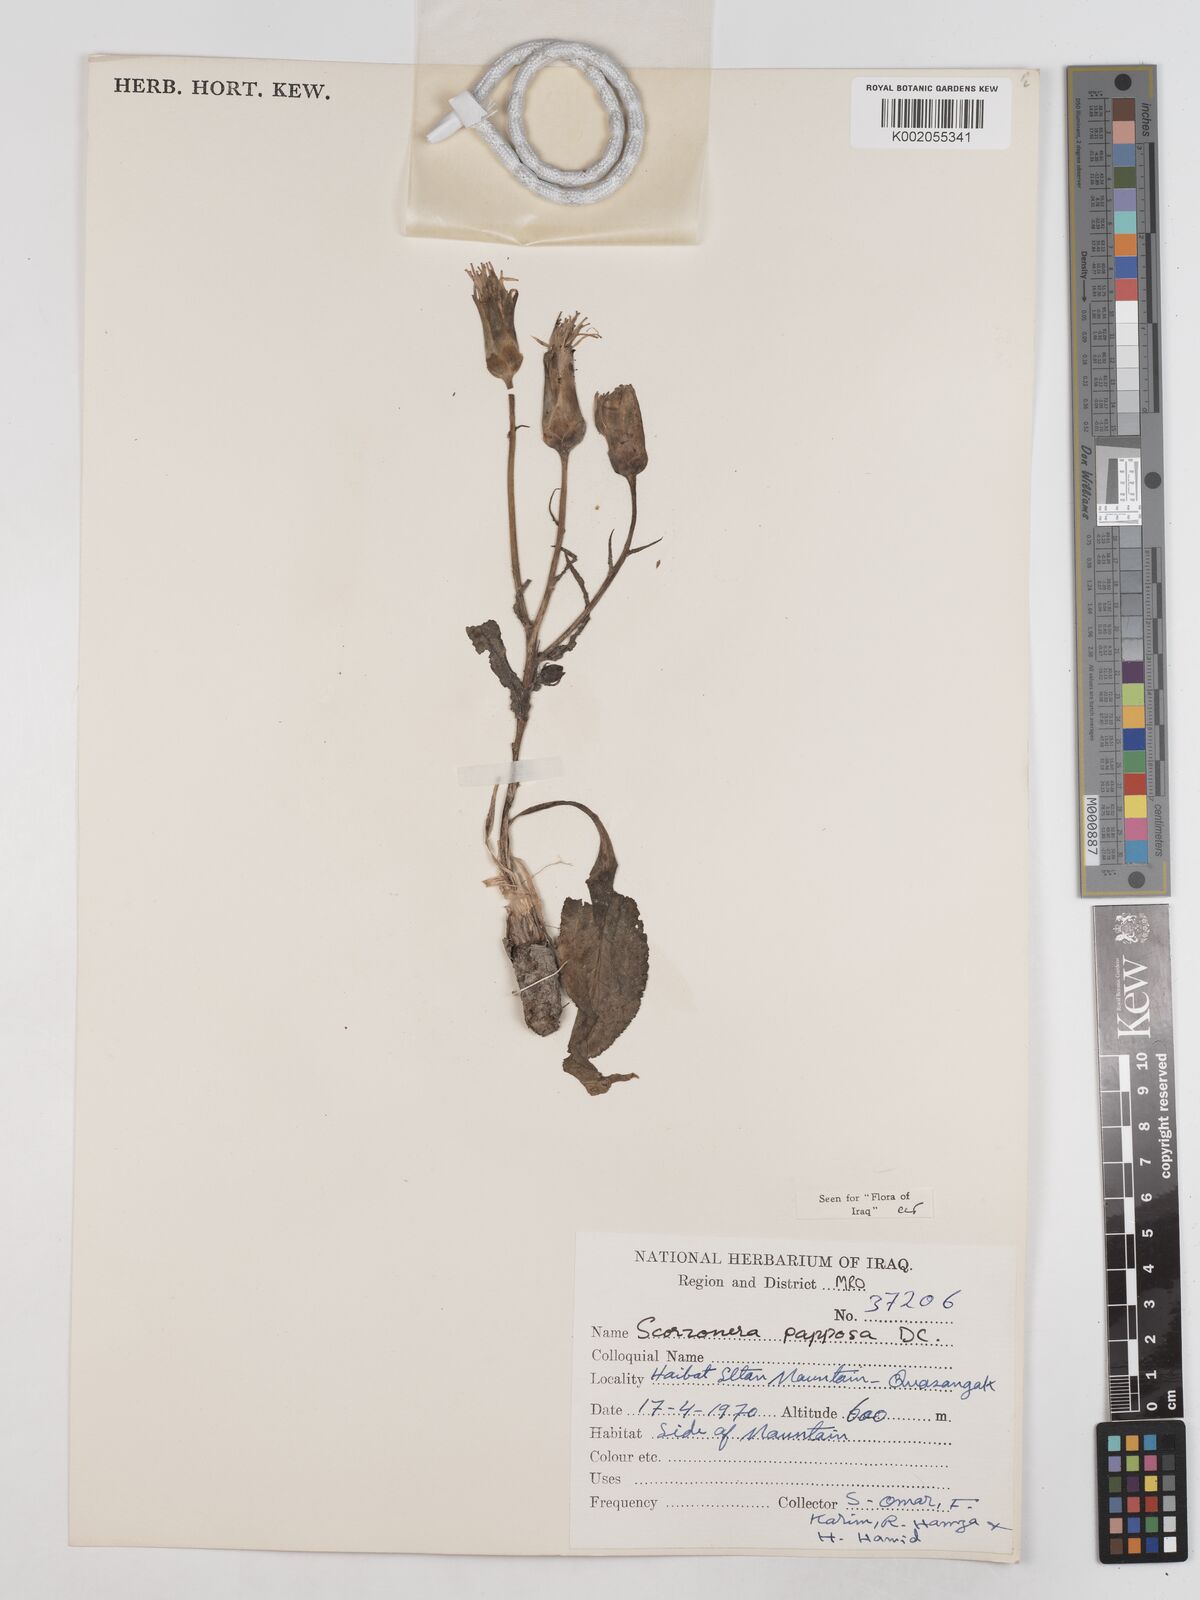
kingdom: Plantae
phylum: Tracheophyta
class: Magnoliopsida
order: Asterales
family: Asteraceae
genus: Pseudopodospermum
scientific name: Pseudopodospermum papposum
